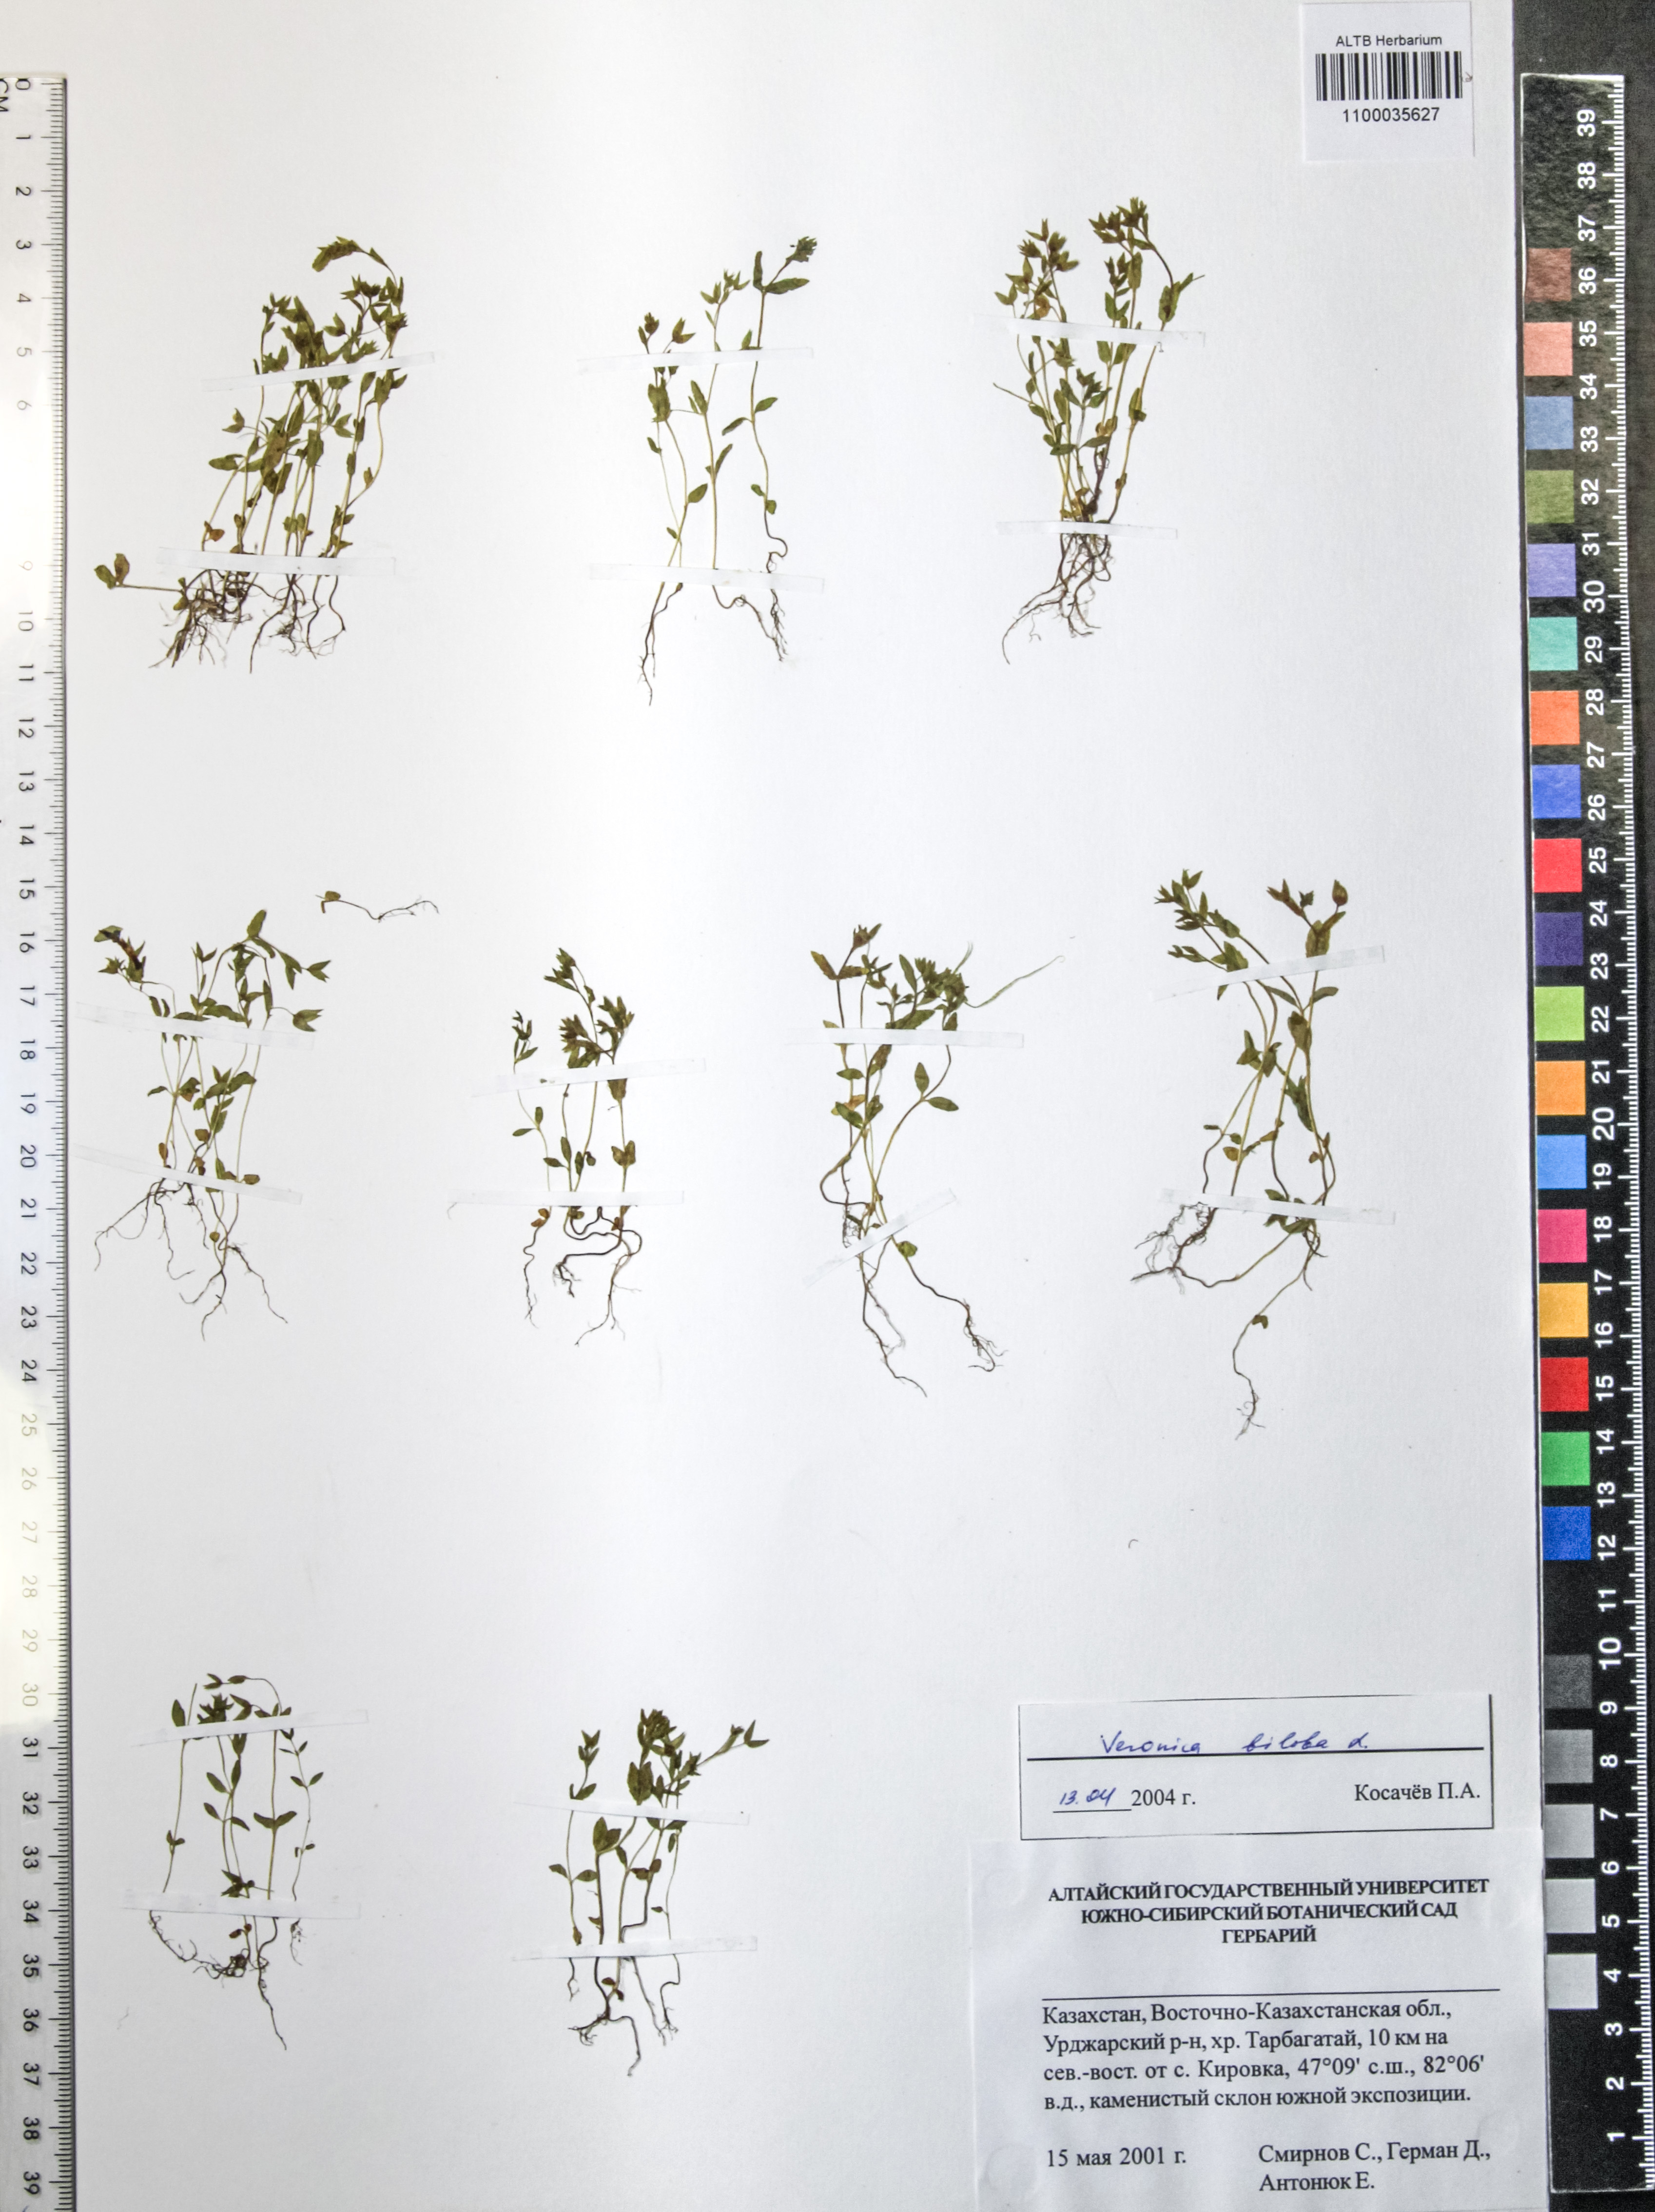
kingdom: Plantae
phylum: Tracheophyta
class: Magnoliopsida
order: Lamiales
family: Plantaginaceae
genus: Veronica
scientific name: Veronica biloba
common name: Twolobe speedwell
